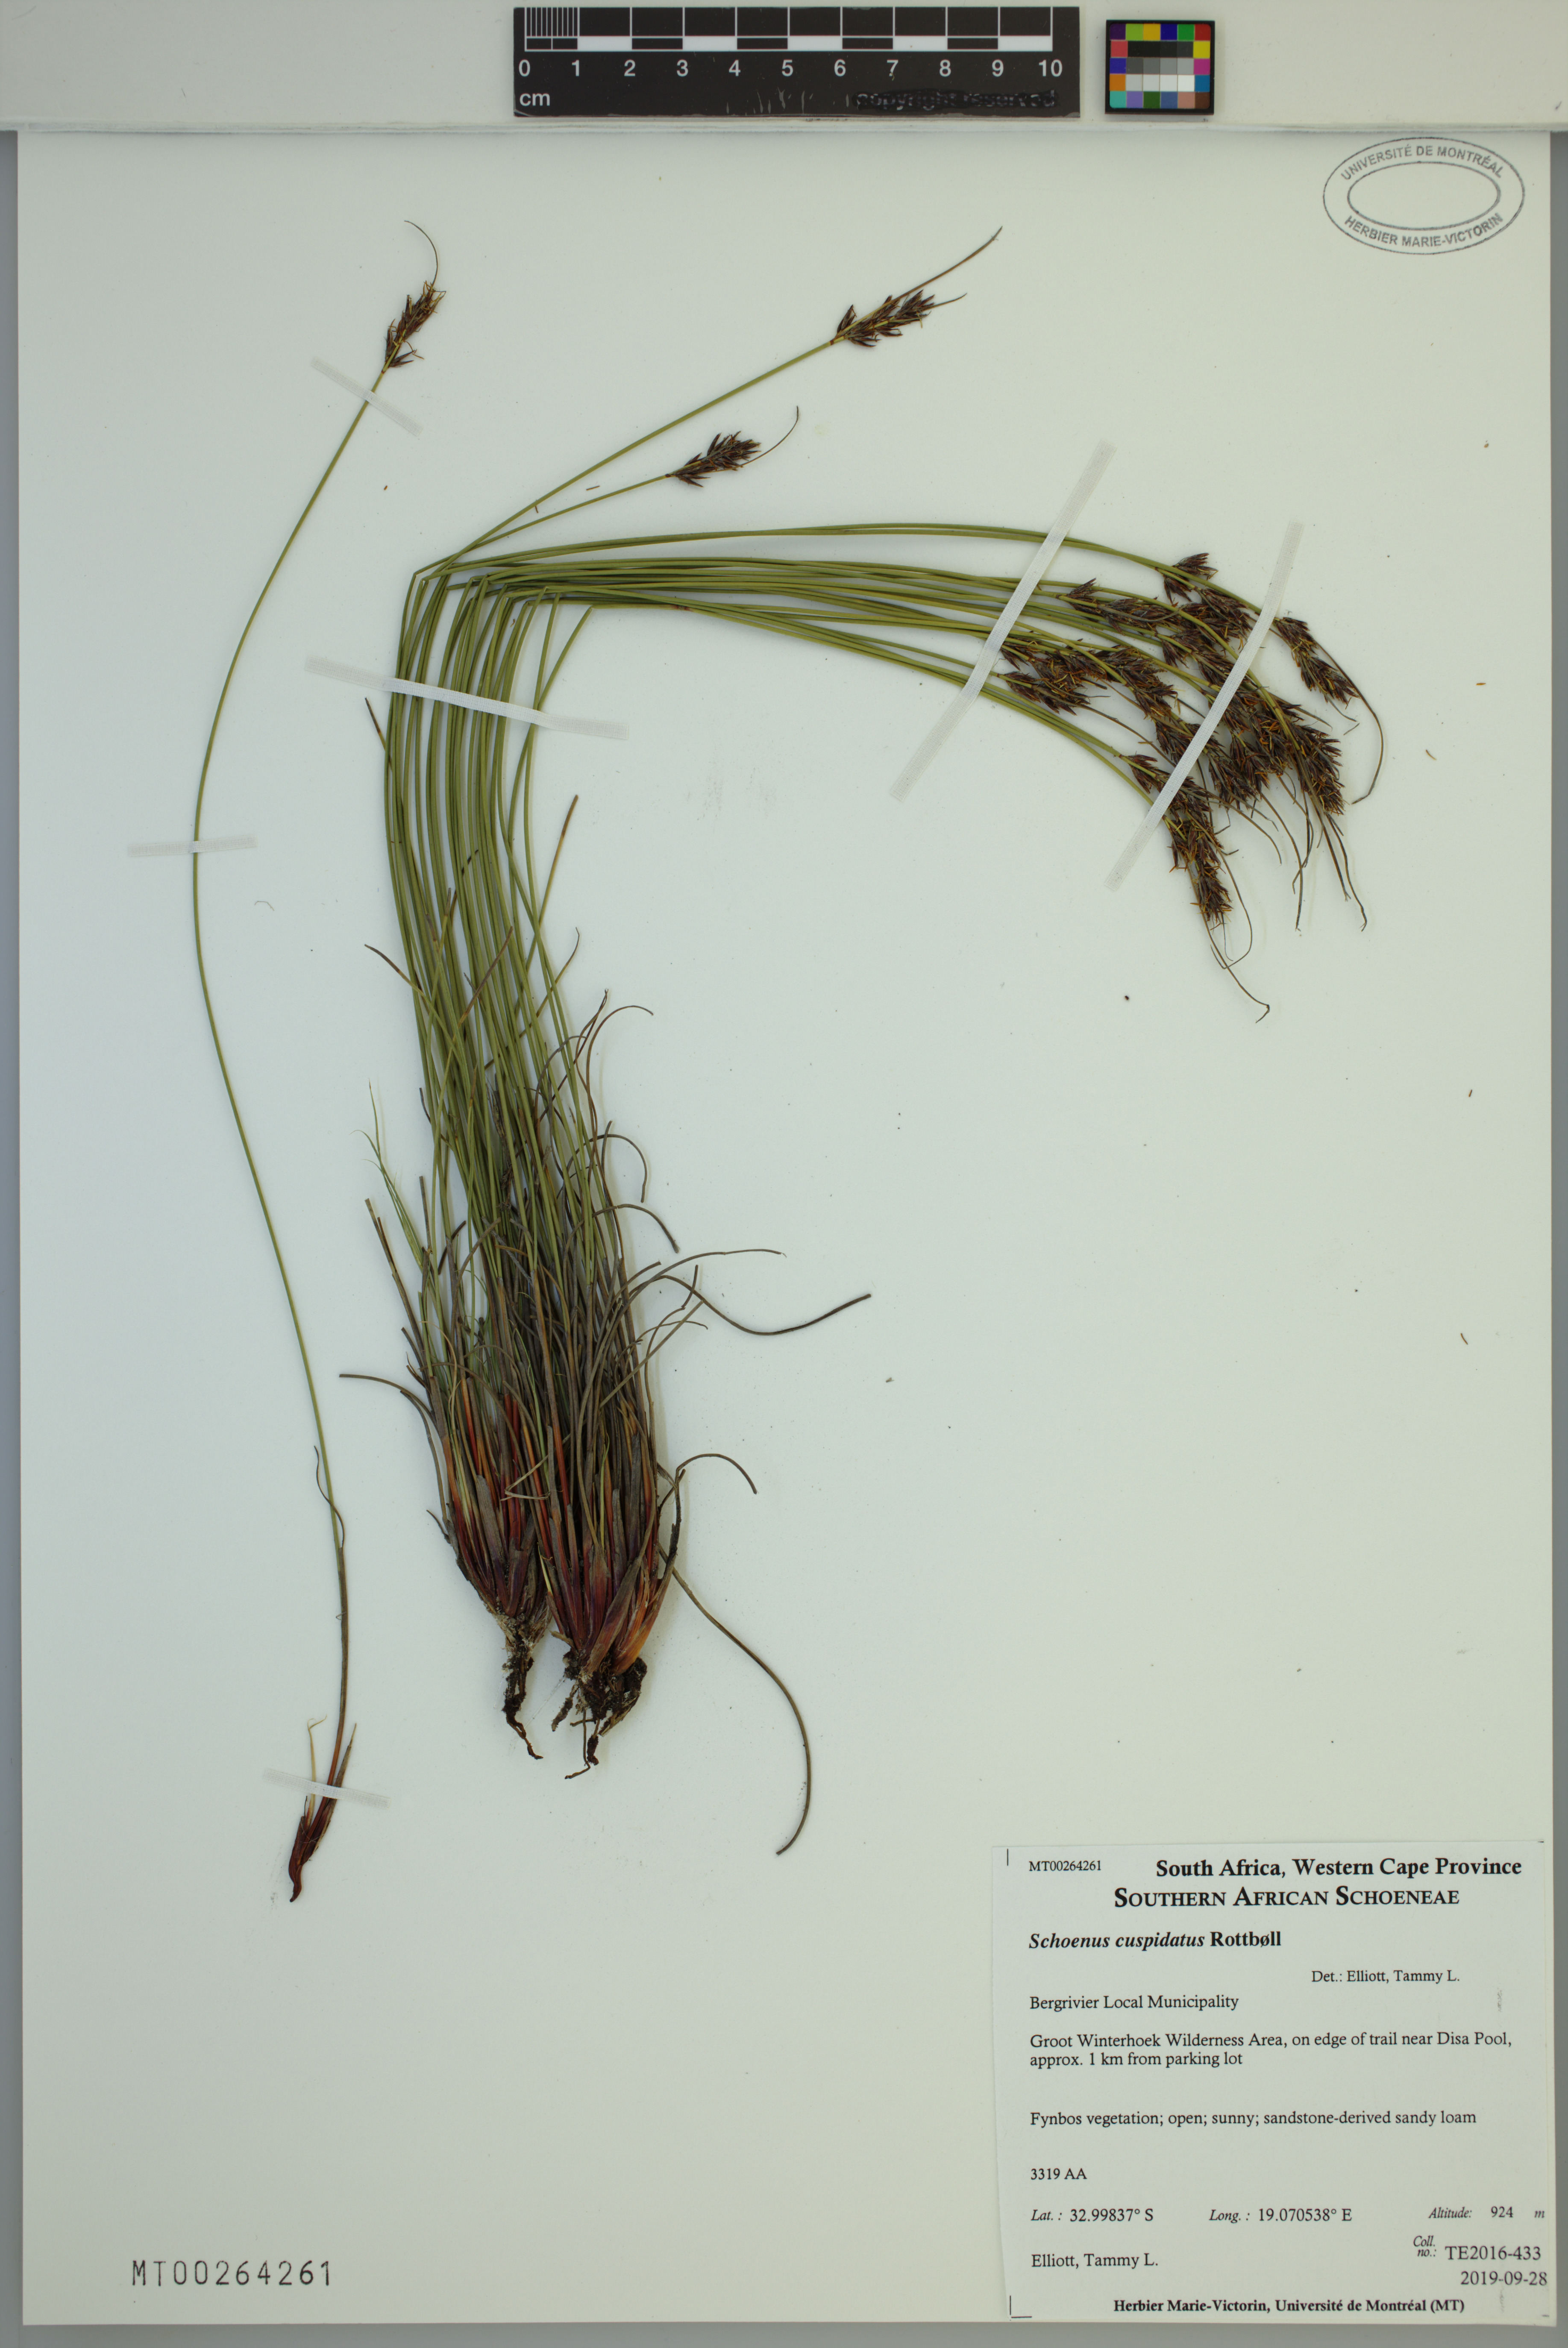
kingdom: Plantae
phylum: Tracheophyta
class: Liliopsida
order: Poales
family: Cyperaceae
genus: Schoenus
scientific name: Schoenus cuspidatus
